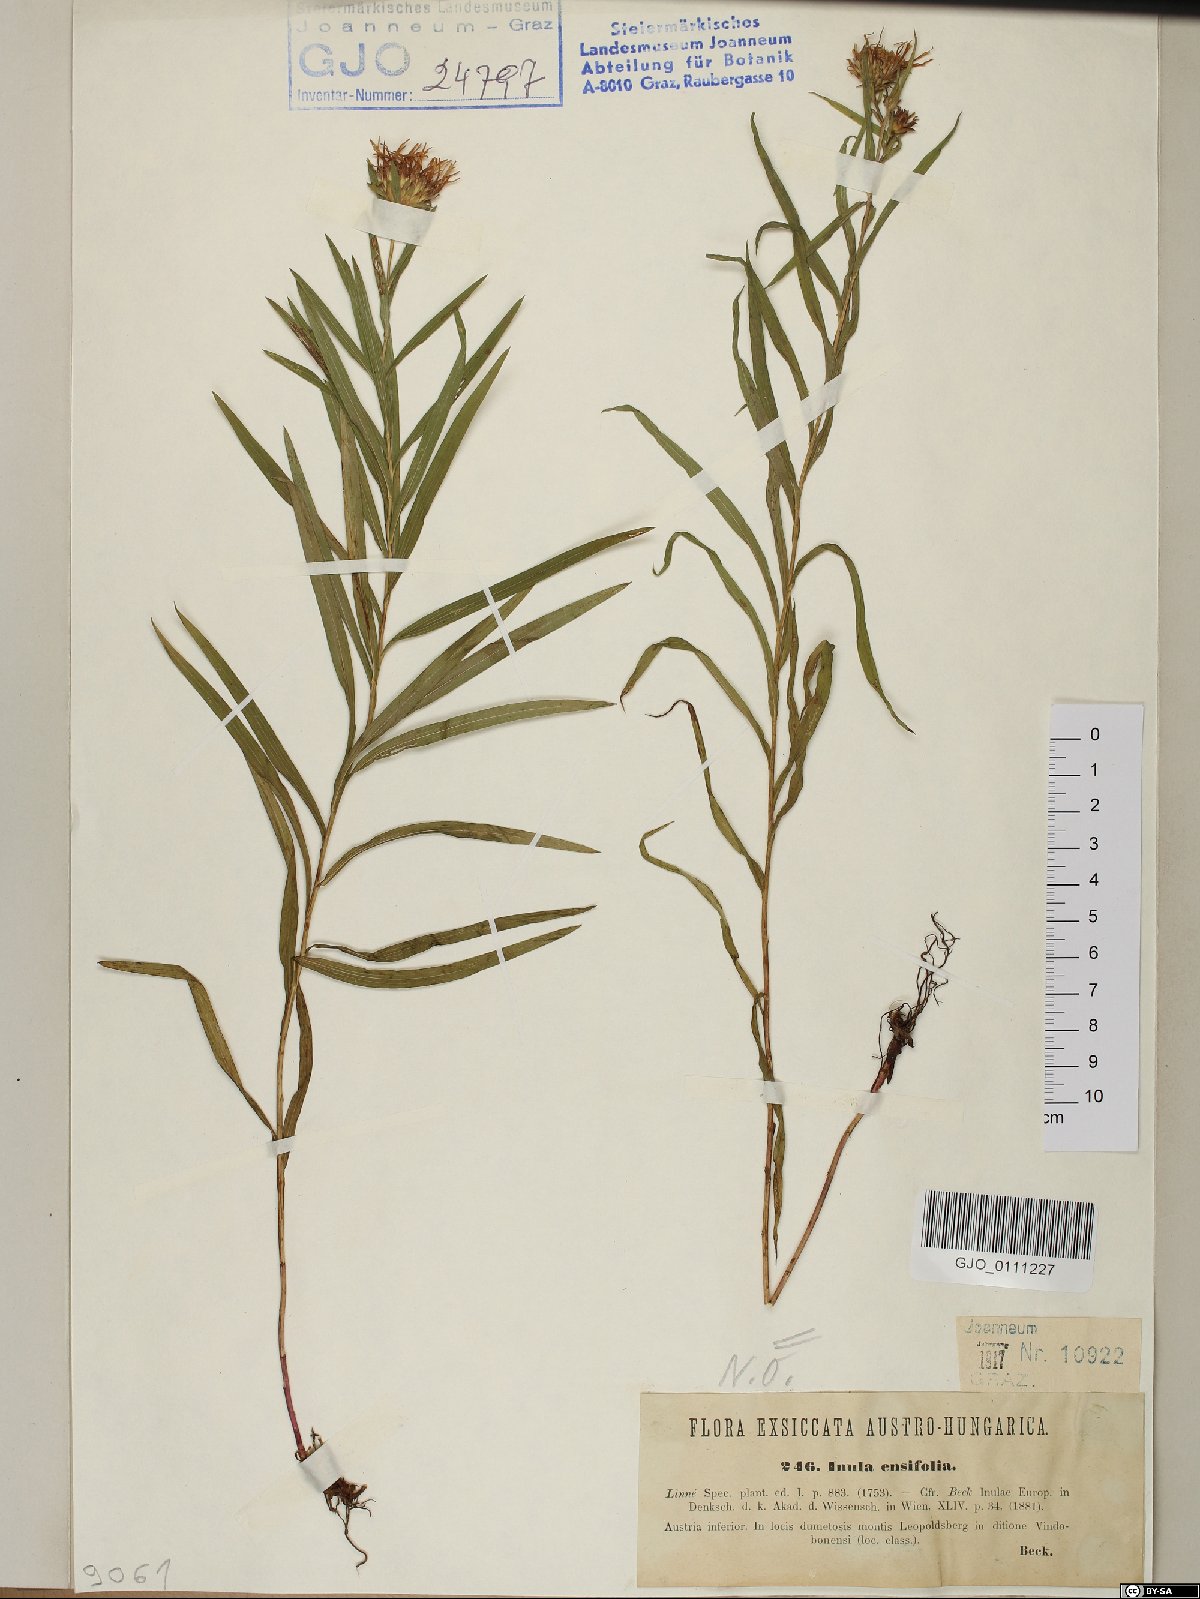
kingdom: Plantae
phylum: Tracheophyta
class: Magnoliopsida
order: Asterales
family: Asteraceae
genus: Pentanema
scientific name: Pentanema ensifolium
